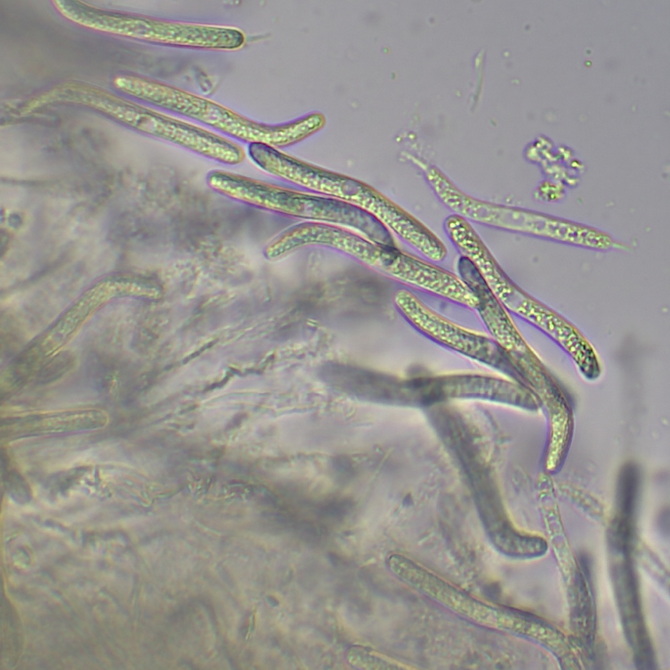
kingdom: Fungi
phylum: Ascomycota
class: Sordariomycetes
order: Sordariales
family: Lasiosphaeriaceae
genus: Lasiosphaeria
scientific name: Lasiosphaeria ovina
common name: fåre-kernesvamp
